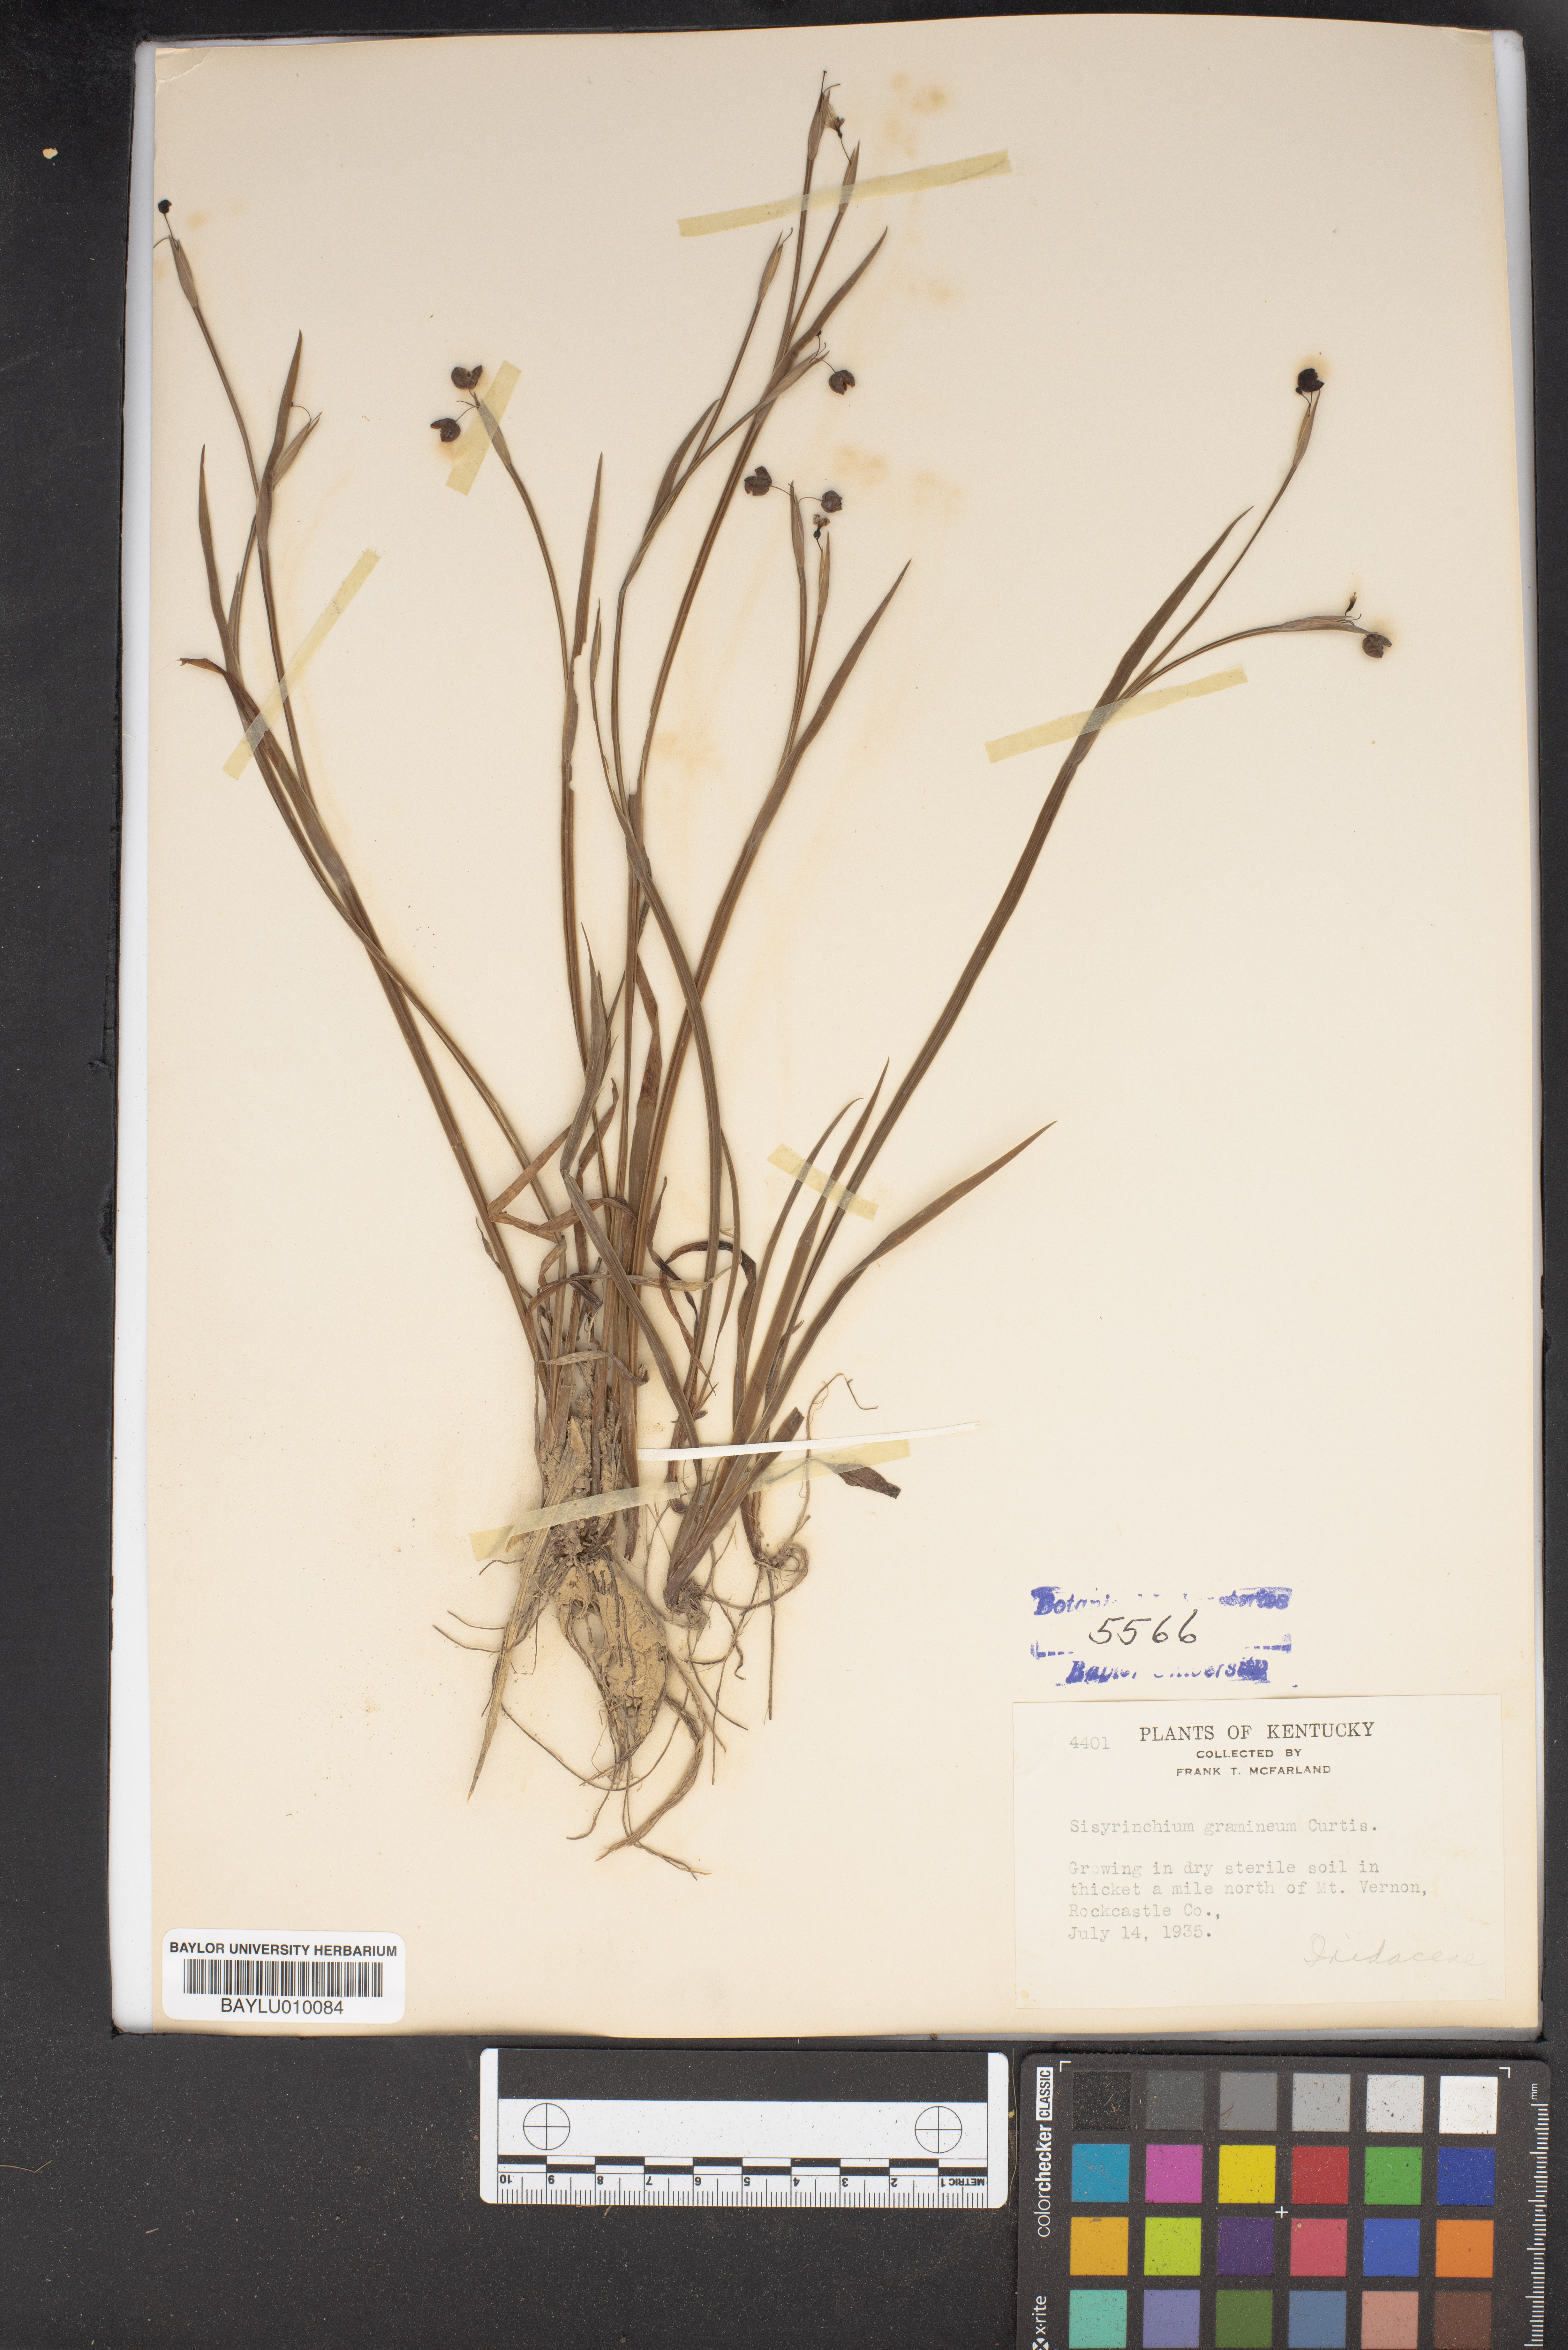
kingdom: Plantae
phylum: Tracheophyta
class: Liliopsida
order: Asparagales
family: Iridaceae
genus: Sisyrinchium
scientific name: Sisyrinchium angustifolium
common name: Narrow-leaf blue-eyed-grass
